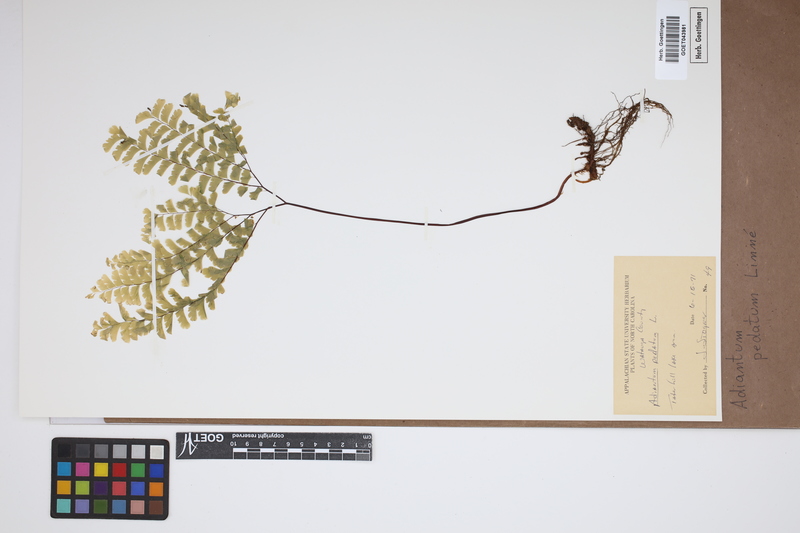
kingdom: Plantae
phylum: Tracheophyta
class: Polypodiopsida
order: Polypodiales
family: Pteridaceae
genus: Adiantum
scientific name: Adiantum pedatum
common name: Five-finger fern
